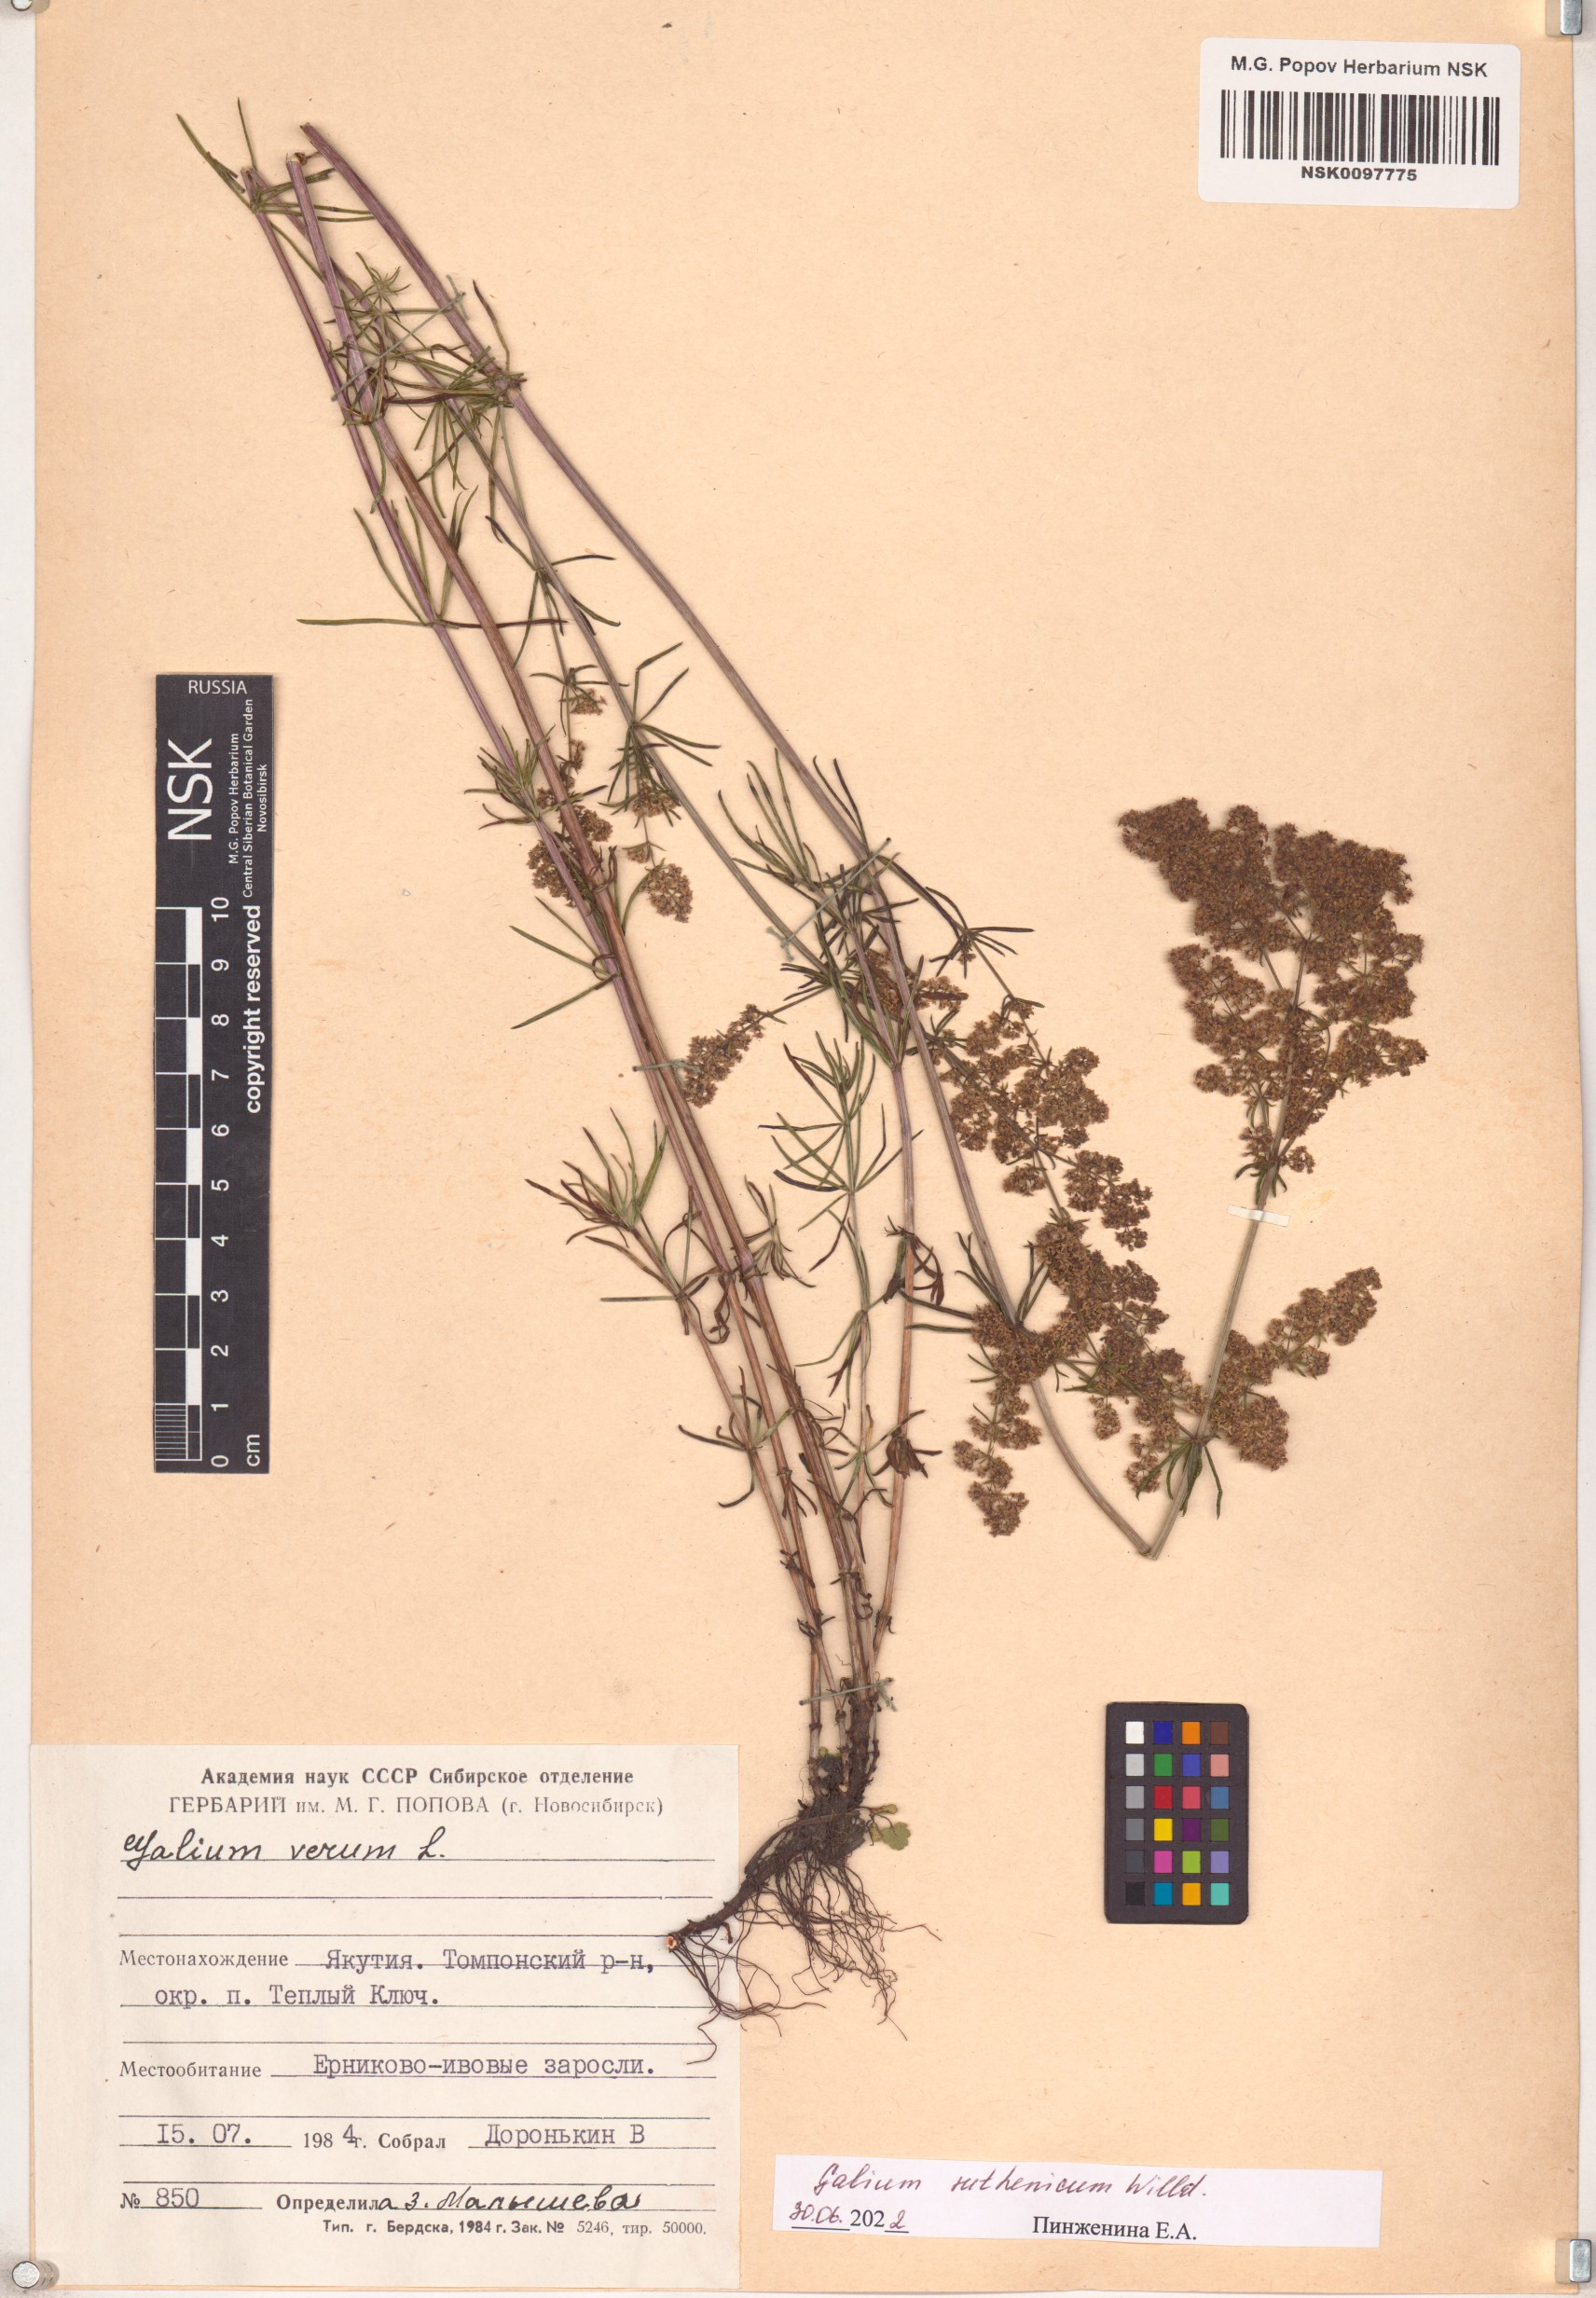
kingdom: Plantae
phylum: Tracheophyta
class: Magnoliopsida
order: Gentianales
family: Rubiaceae
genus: Galium
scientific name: Galium verum
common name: Lady's bedstraw
